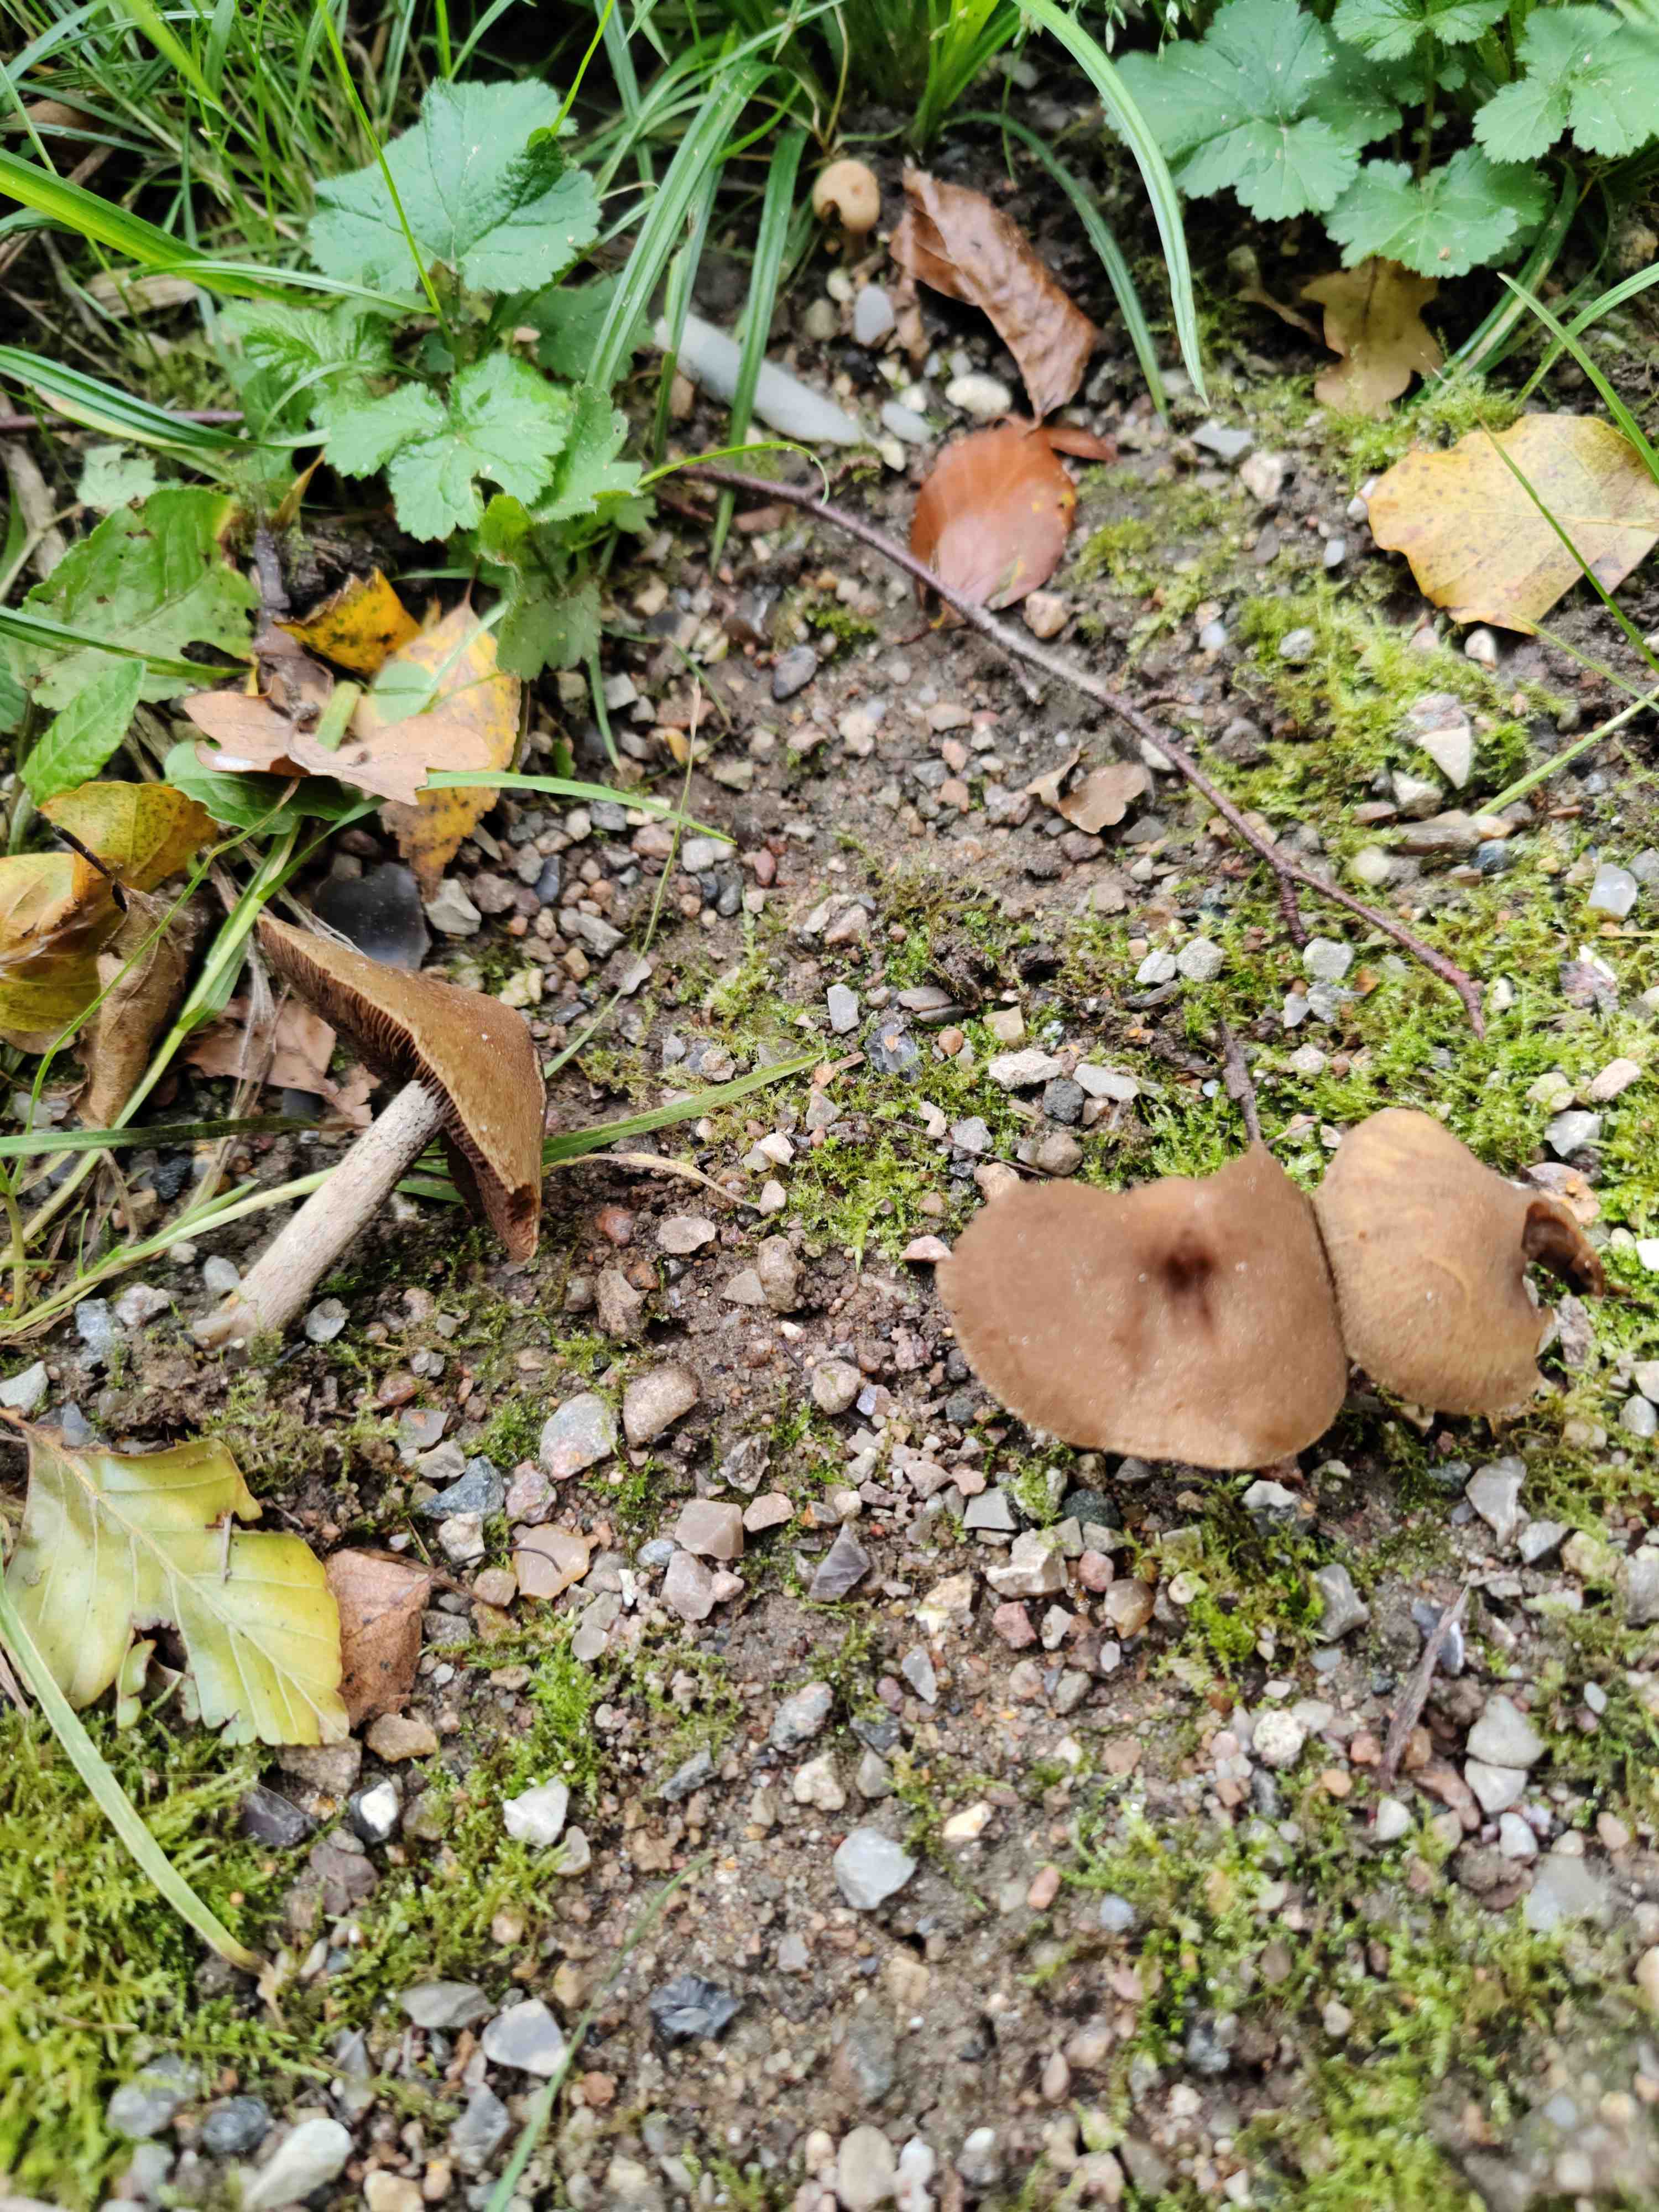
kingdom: Fungi
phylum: Basidiomycota
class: Agaricomycetes
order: Agaricales
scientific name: Agaricales
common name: champignonordenen
